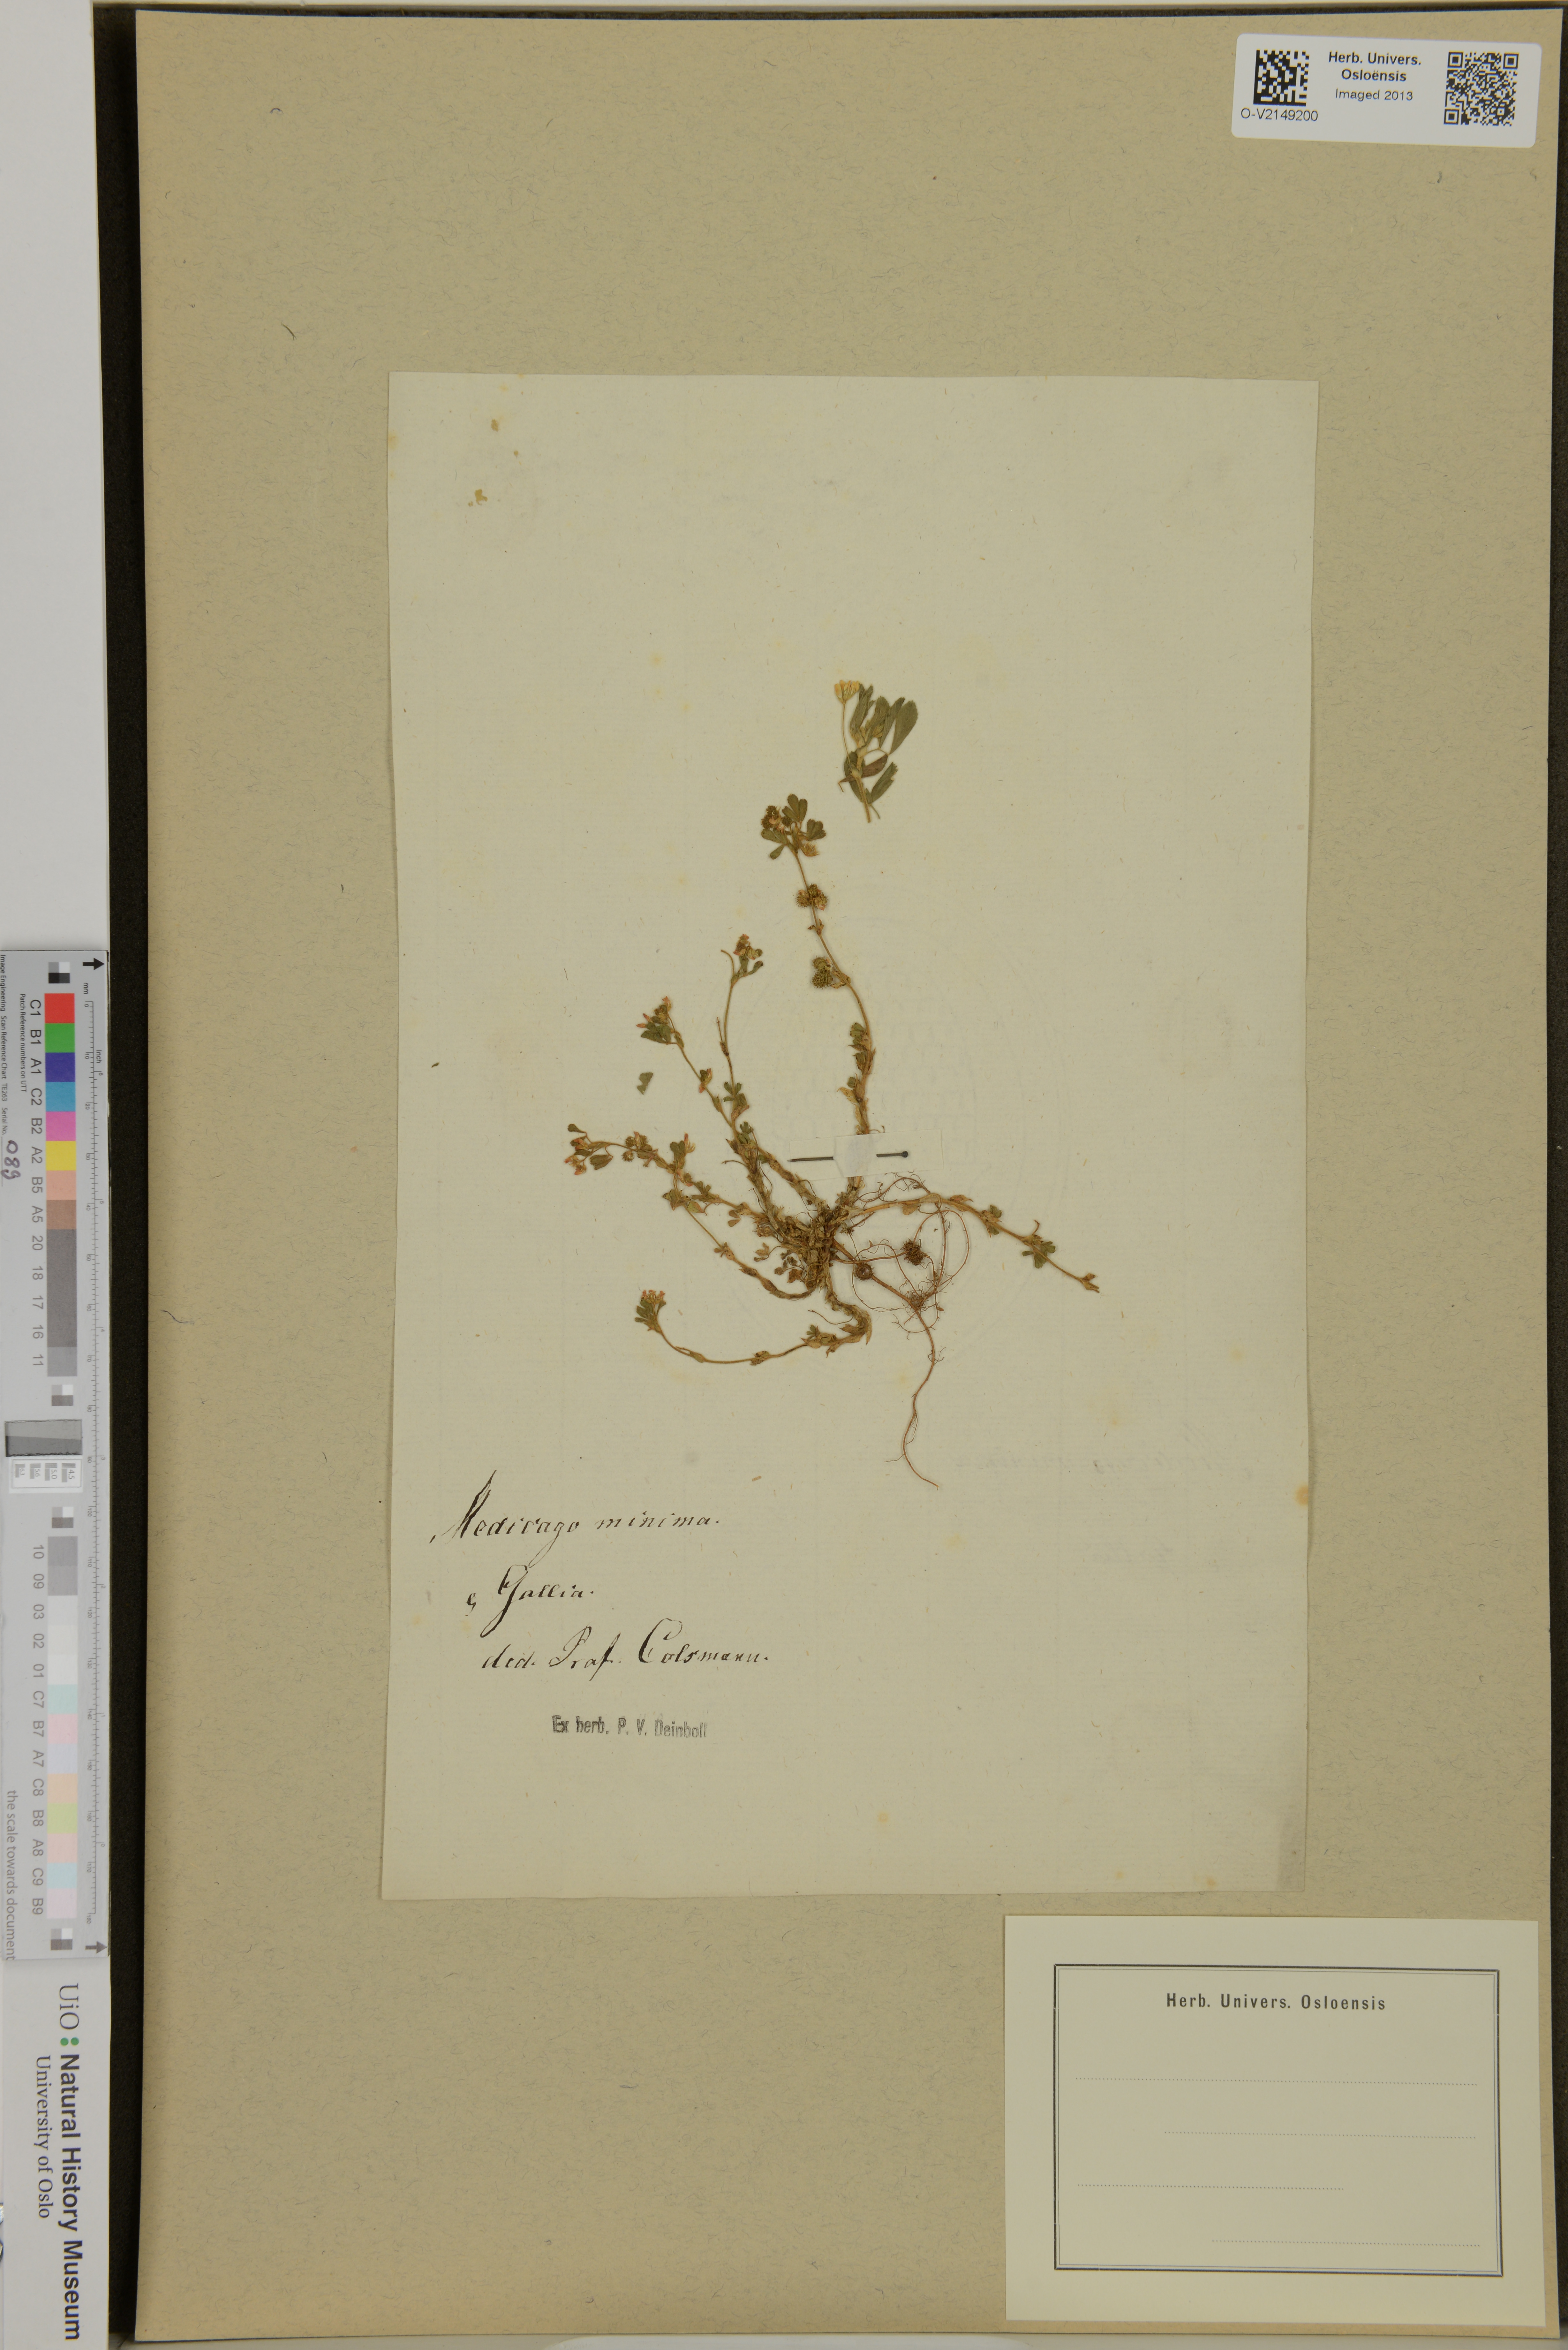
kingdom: Plantae
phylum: Tracheophyta
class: Magnoliopsida
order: Fabales
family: Fabaceae
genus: Medicago
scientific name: Medicago minima
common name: Little bur-clover
